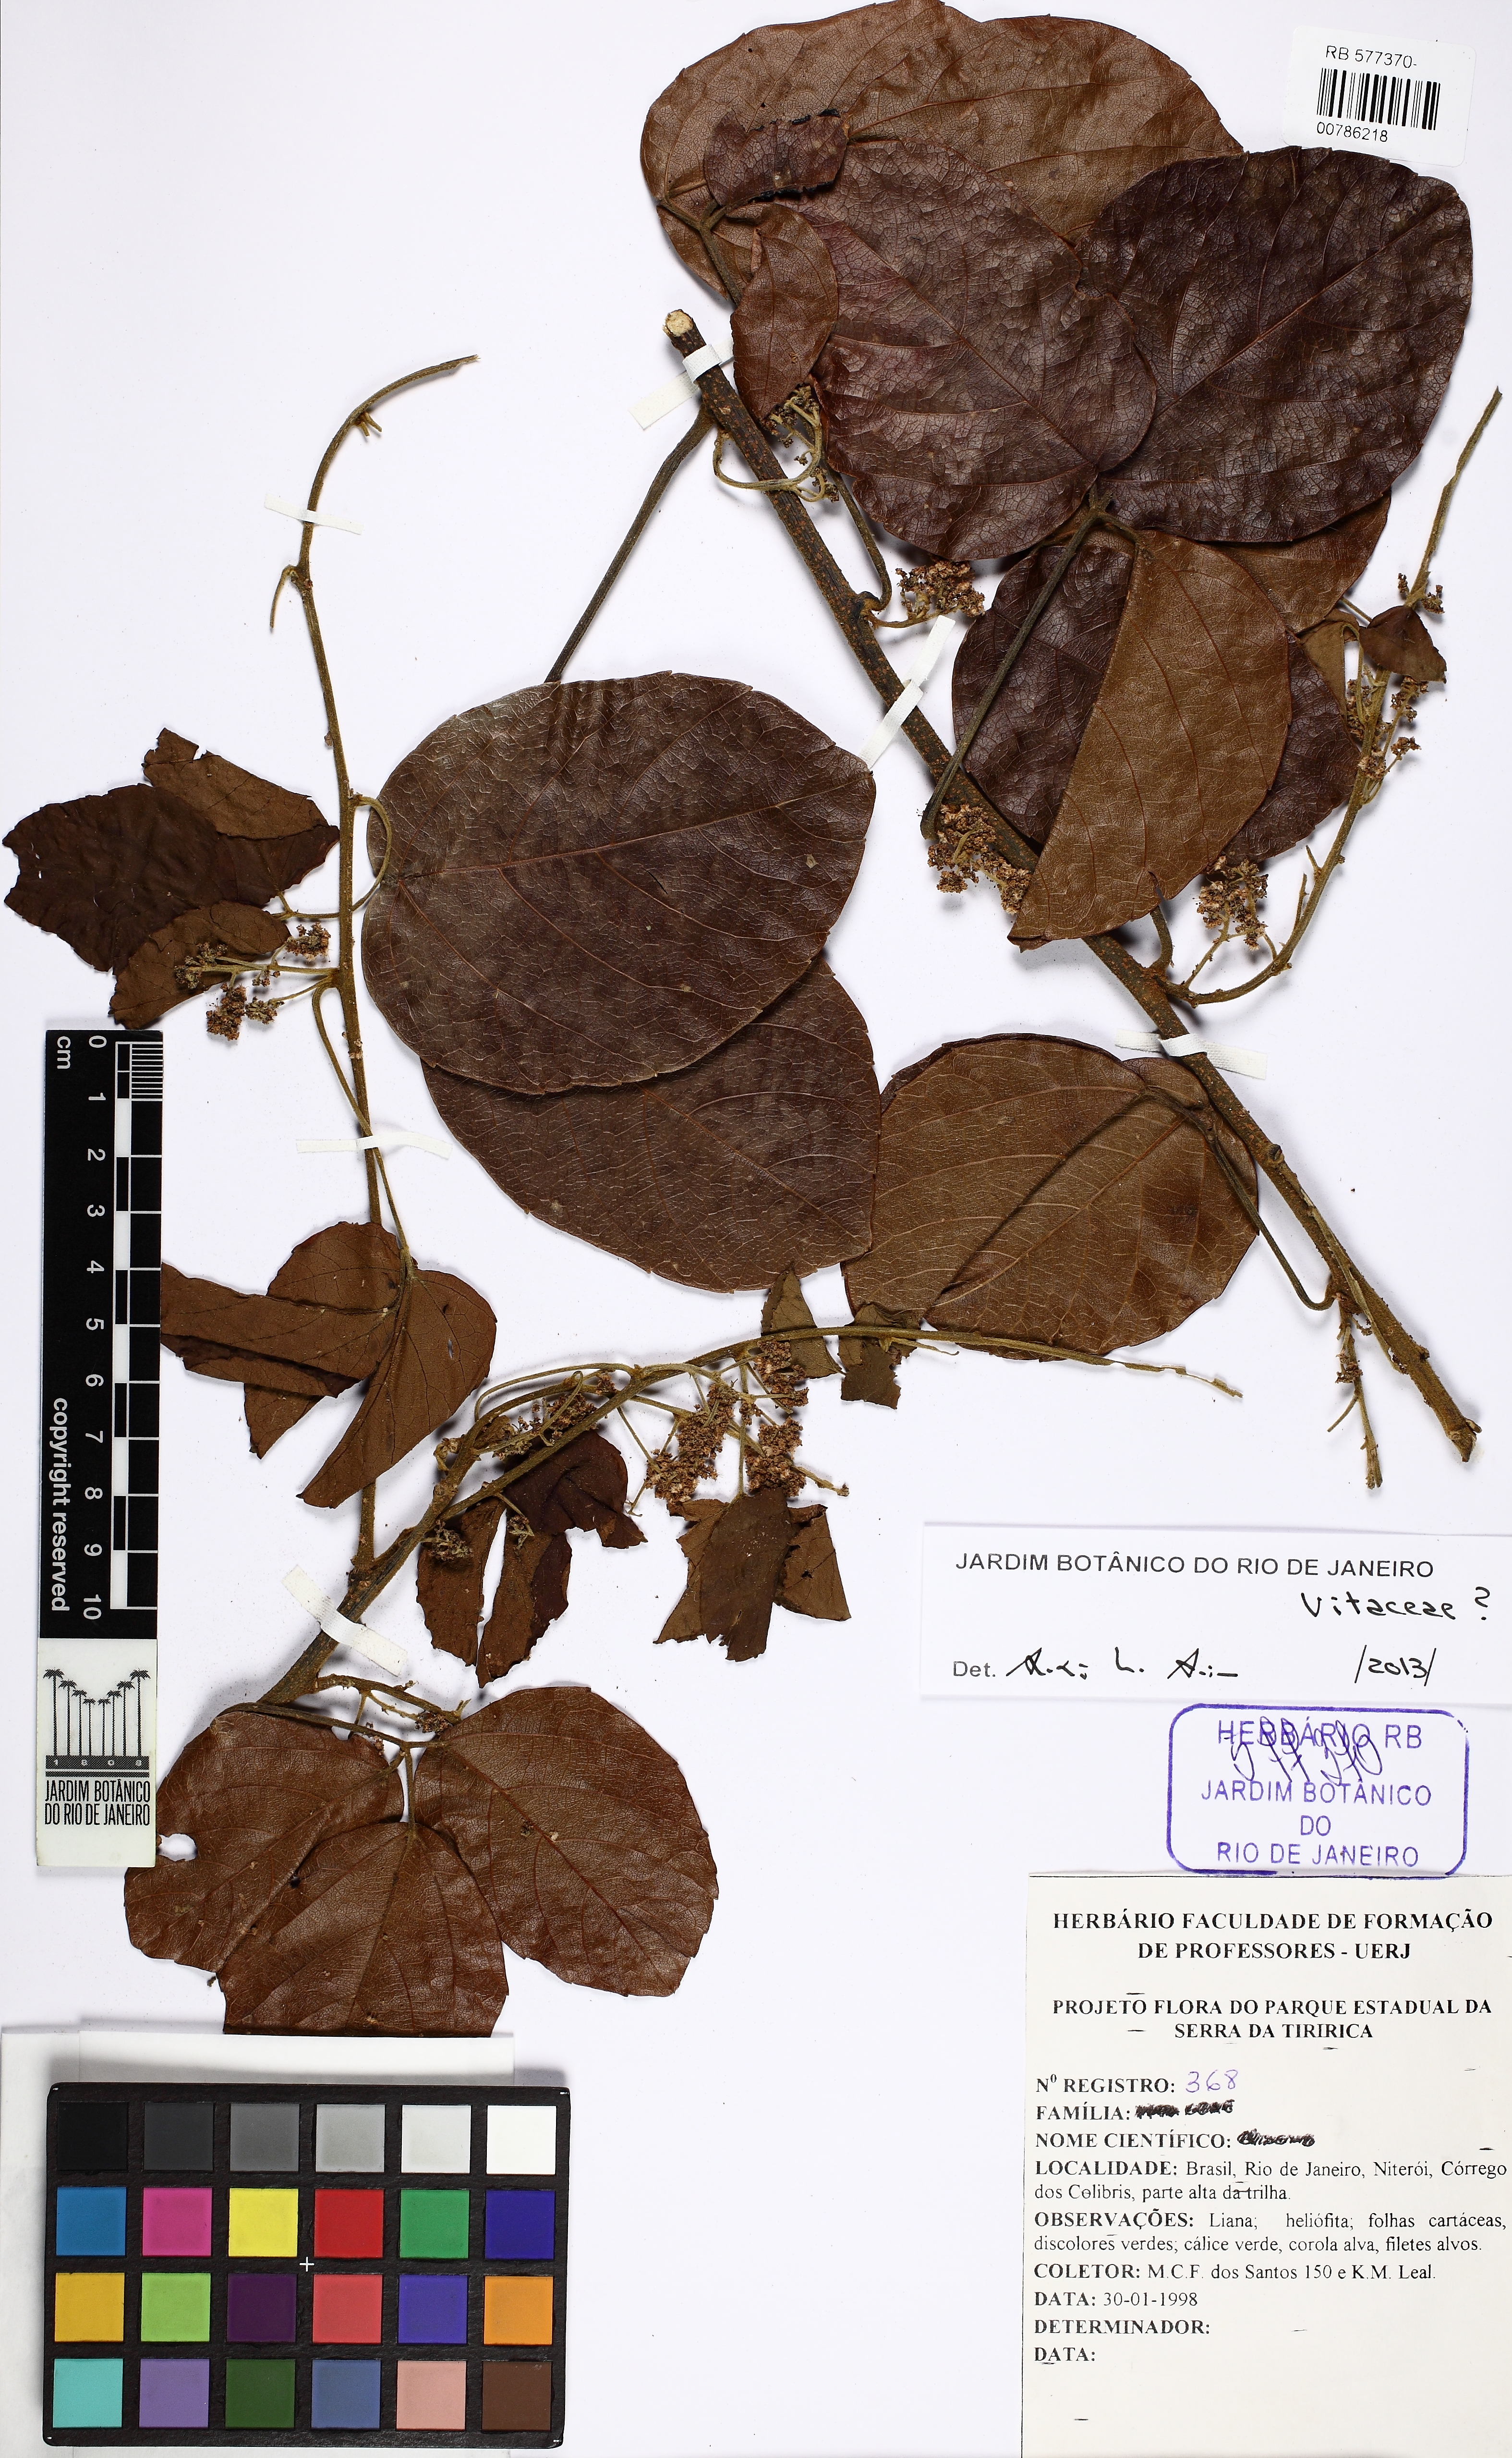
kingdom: Plantae
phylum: Tracheophyta
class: Magnoliopsida
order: Vitales
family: Vitaceae
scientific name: Vitaceae
